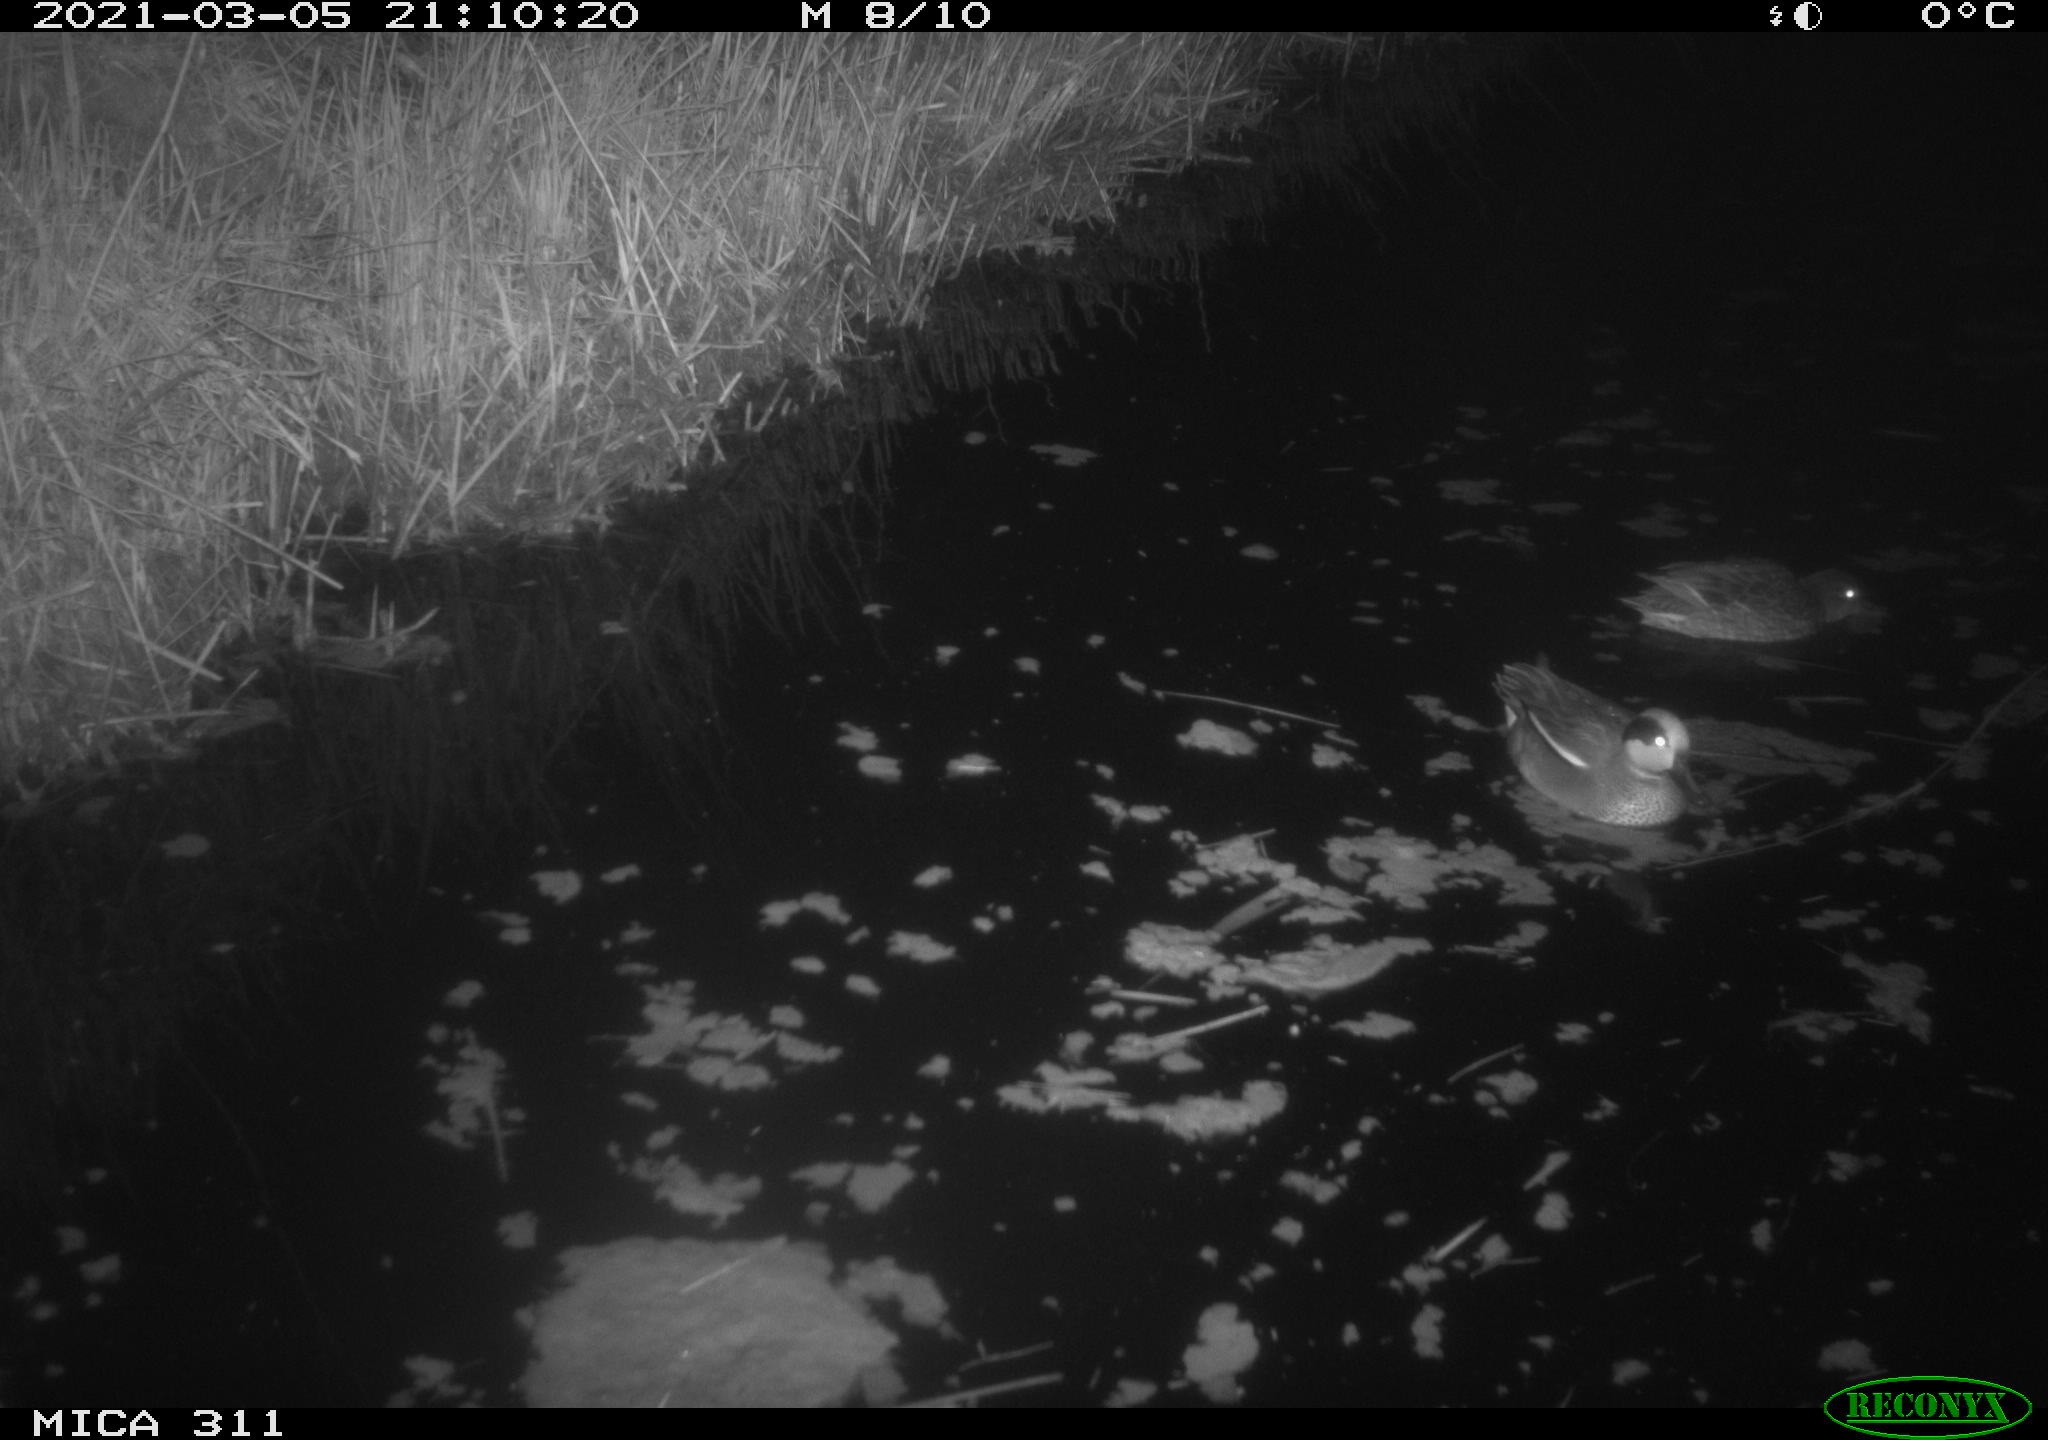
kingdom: Animalia
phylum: Chordata
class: Aves
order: Anseriformes
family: Anatidae
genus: Anas
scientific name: Anas
